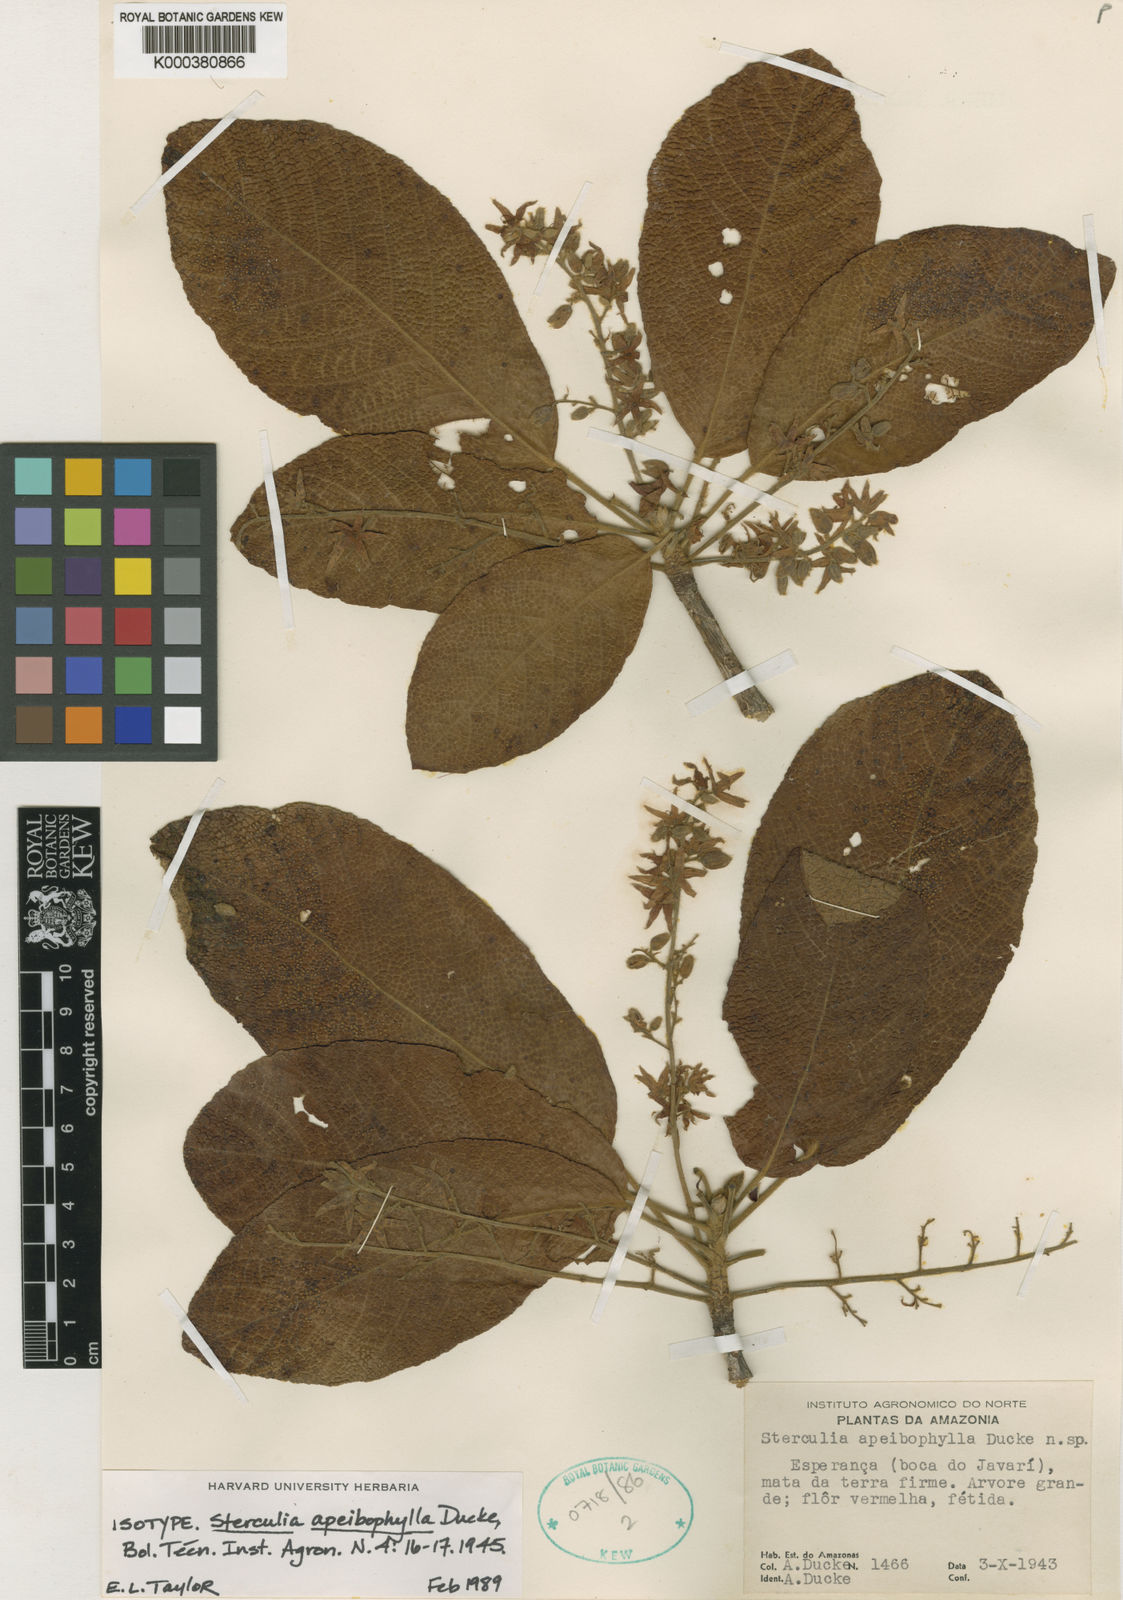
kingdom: Plantae
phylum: Tracheophyta
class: Magnoliopsida
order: Malvales
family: Malvaceae
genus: Sterculia
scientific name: Sterculia apeibophylla
